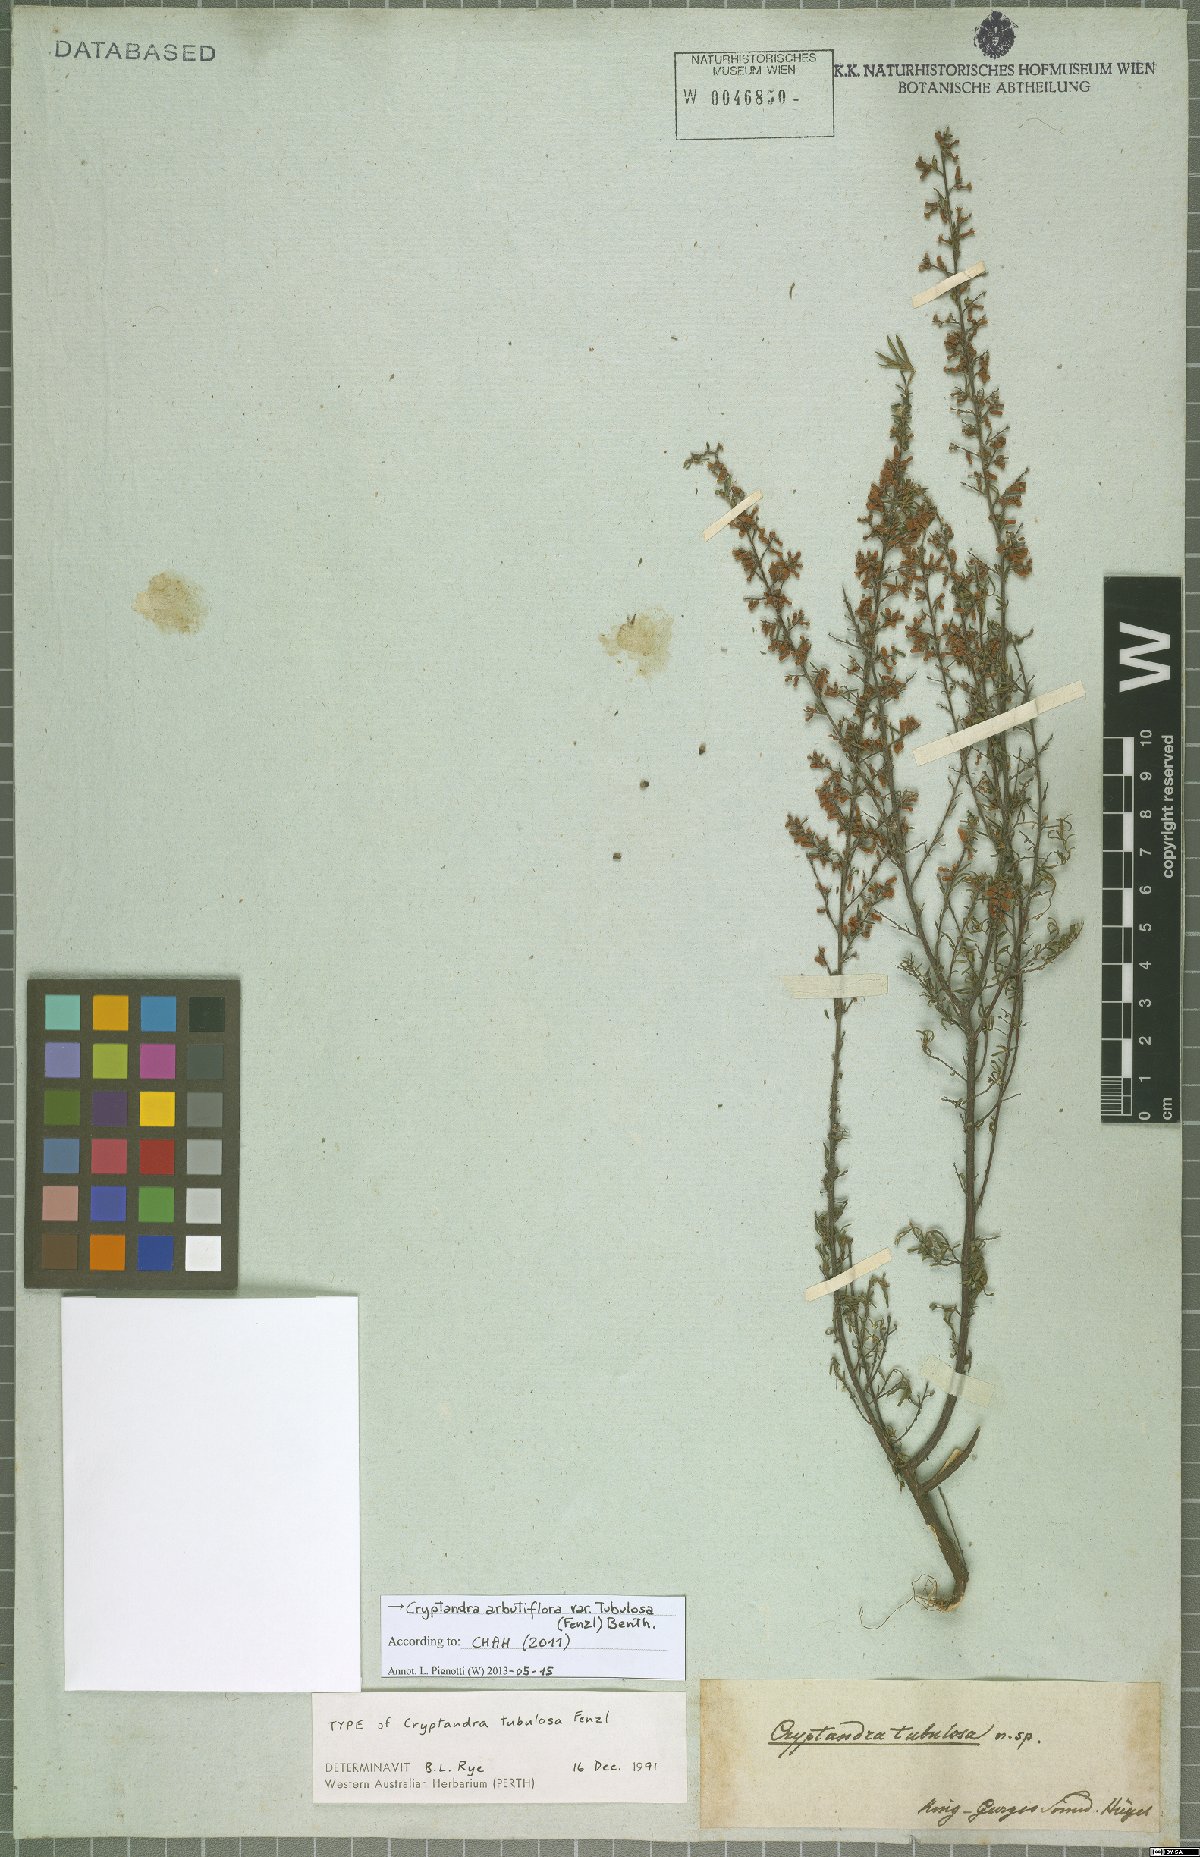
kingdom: Plantae
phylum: Tracheophyta
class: Magnoliopsida
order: Rosales
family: Rhamnaceae
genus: Cryptandra
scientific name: Cryptandra tubulosa
